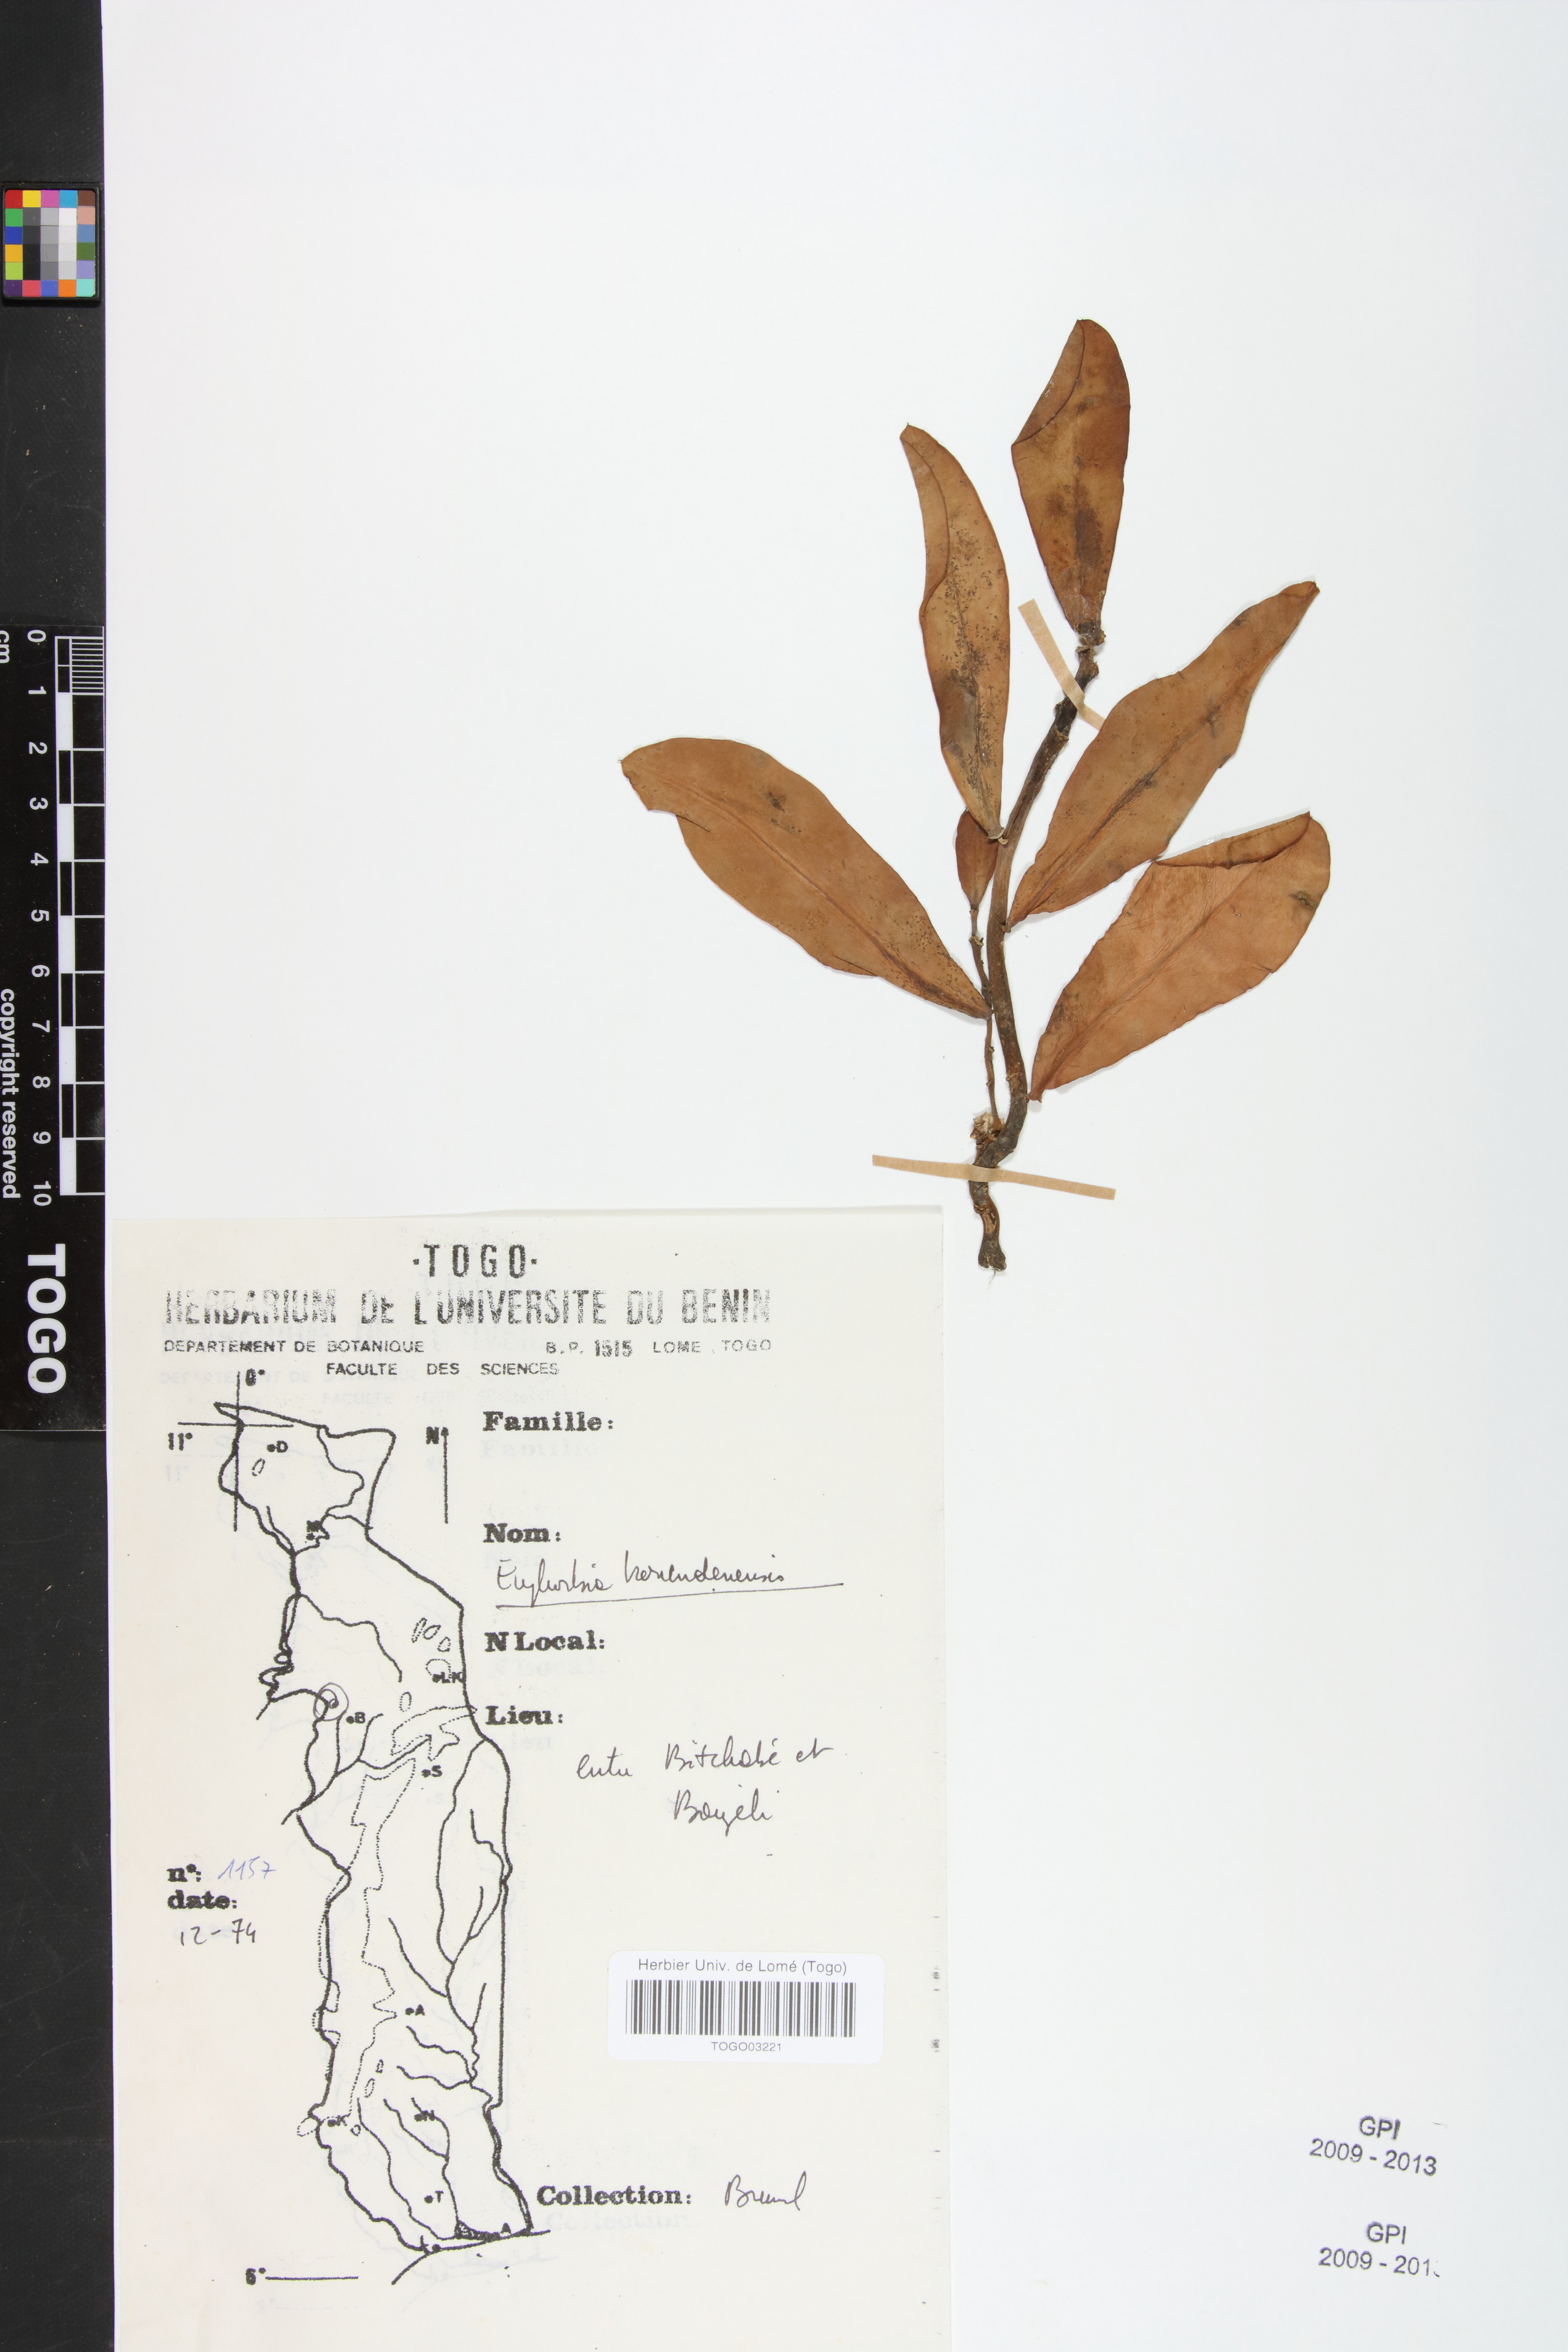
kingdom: Plantae
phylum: Tracheophyta
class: Magnoliopsida
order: Malpighiales
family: Euphorbiaceae
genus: Euphorbia
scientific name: Euphorbia kouandenensis
